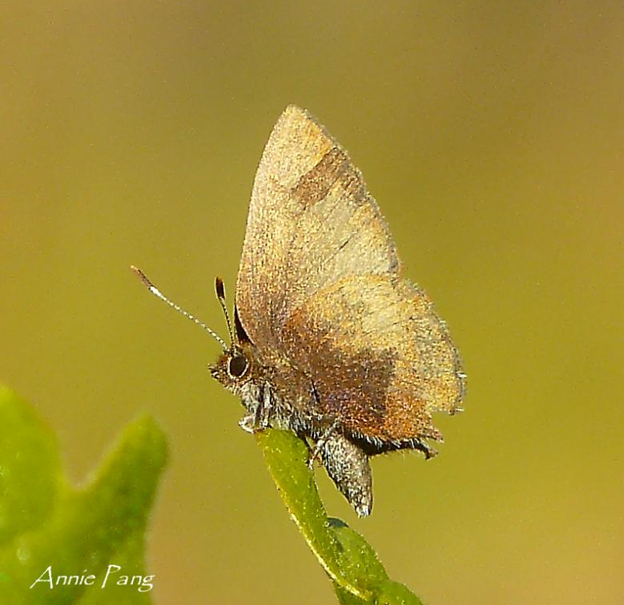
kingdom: Animalia
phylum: Arthropoda
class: Insecta
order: Lepidoptera
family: Lycaenidae
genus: Incisalia
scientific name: Incisalia irioides
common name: Brown Elfin
